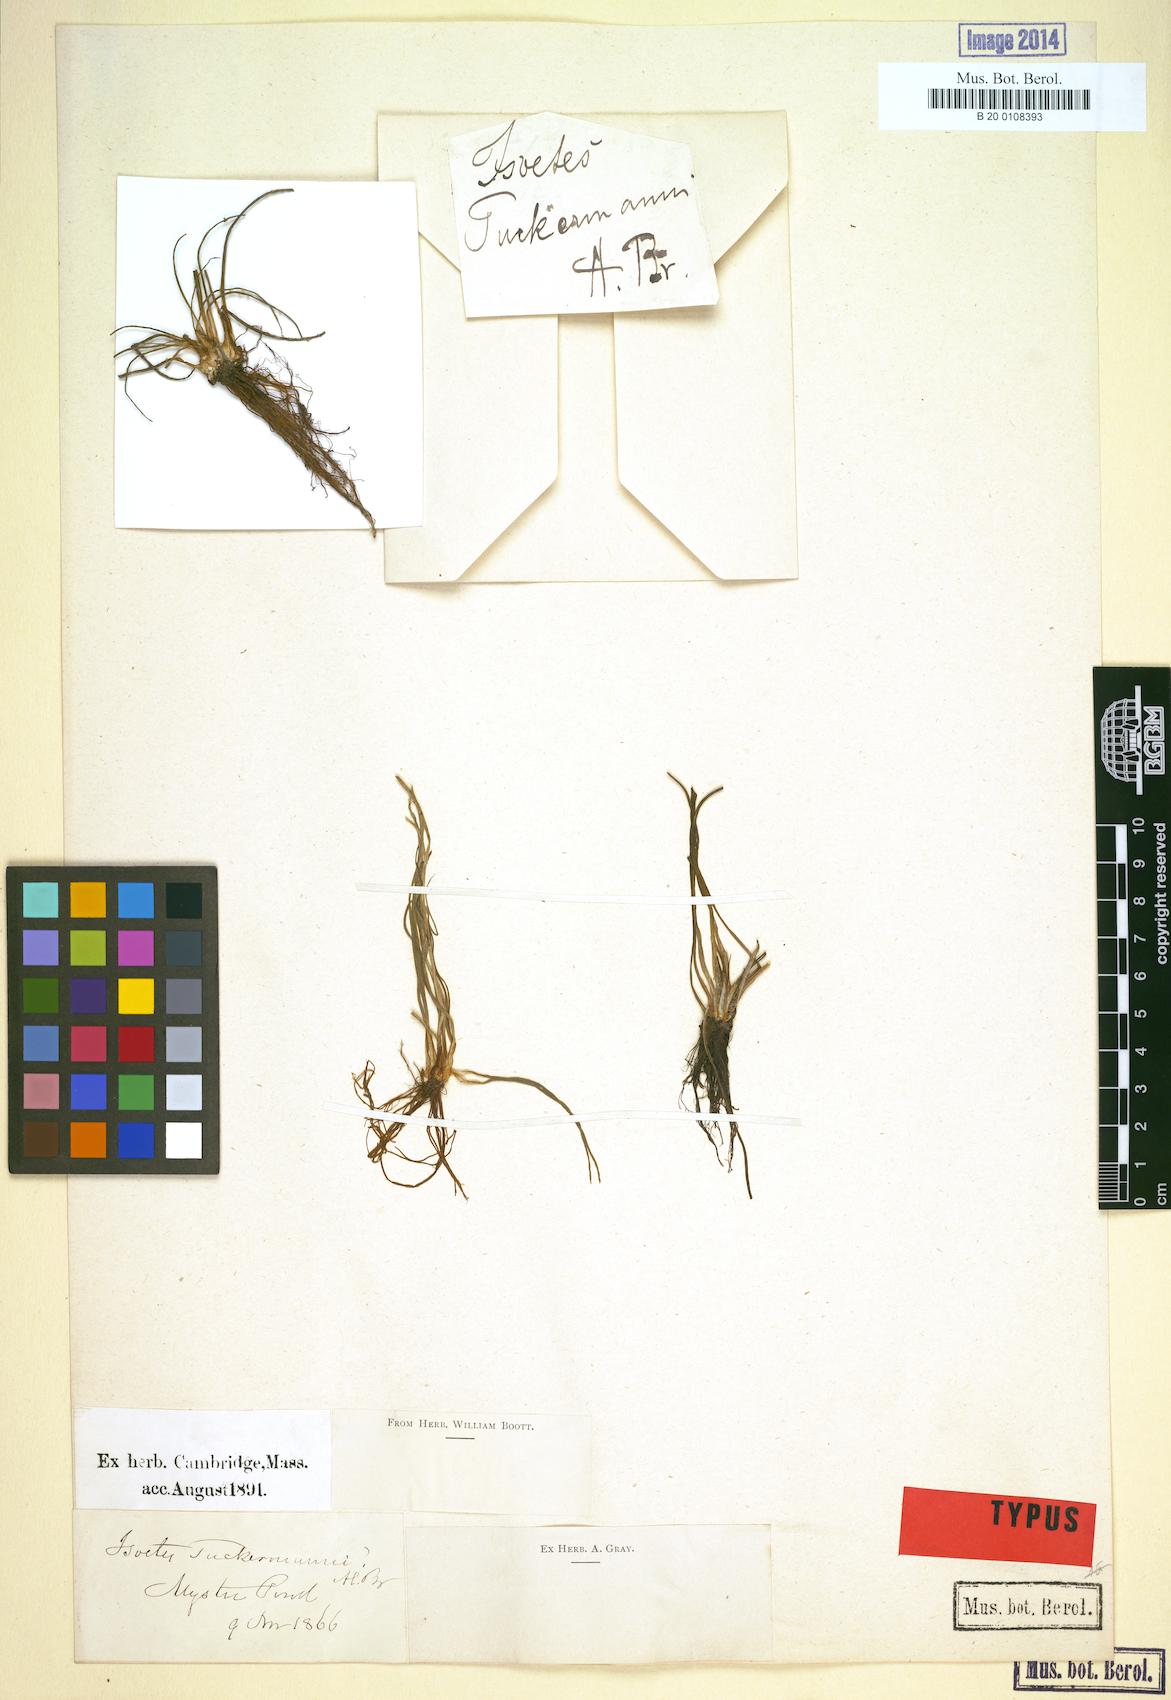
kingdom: Plantae
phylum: Tracheophyta
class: Lycopodiopsida
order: Isoetales
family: Isoetaceae
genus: Isoetes
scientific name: Isoetes tuckermanii
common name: Tuckerman's quillwort
